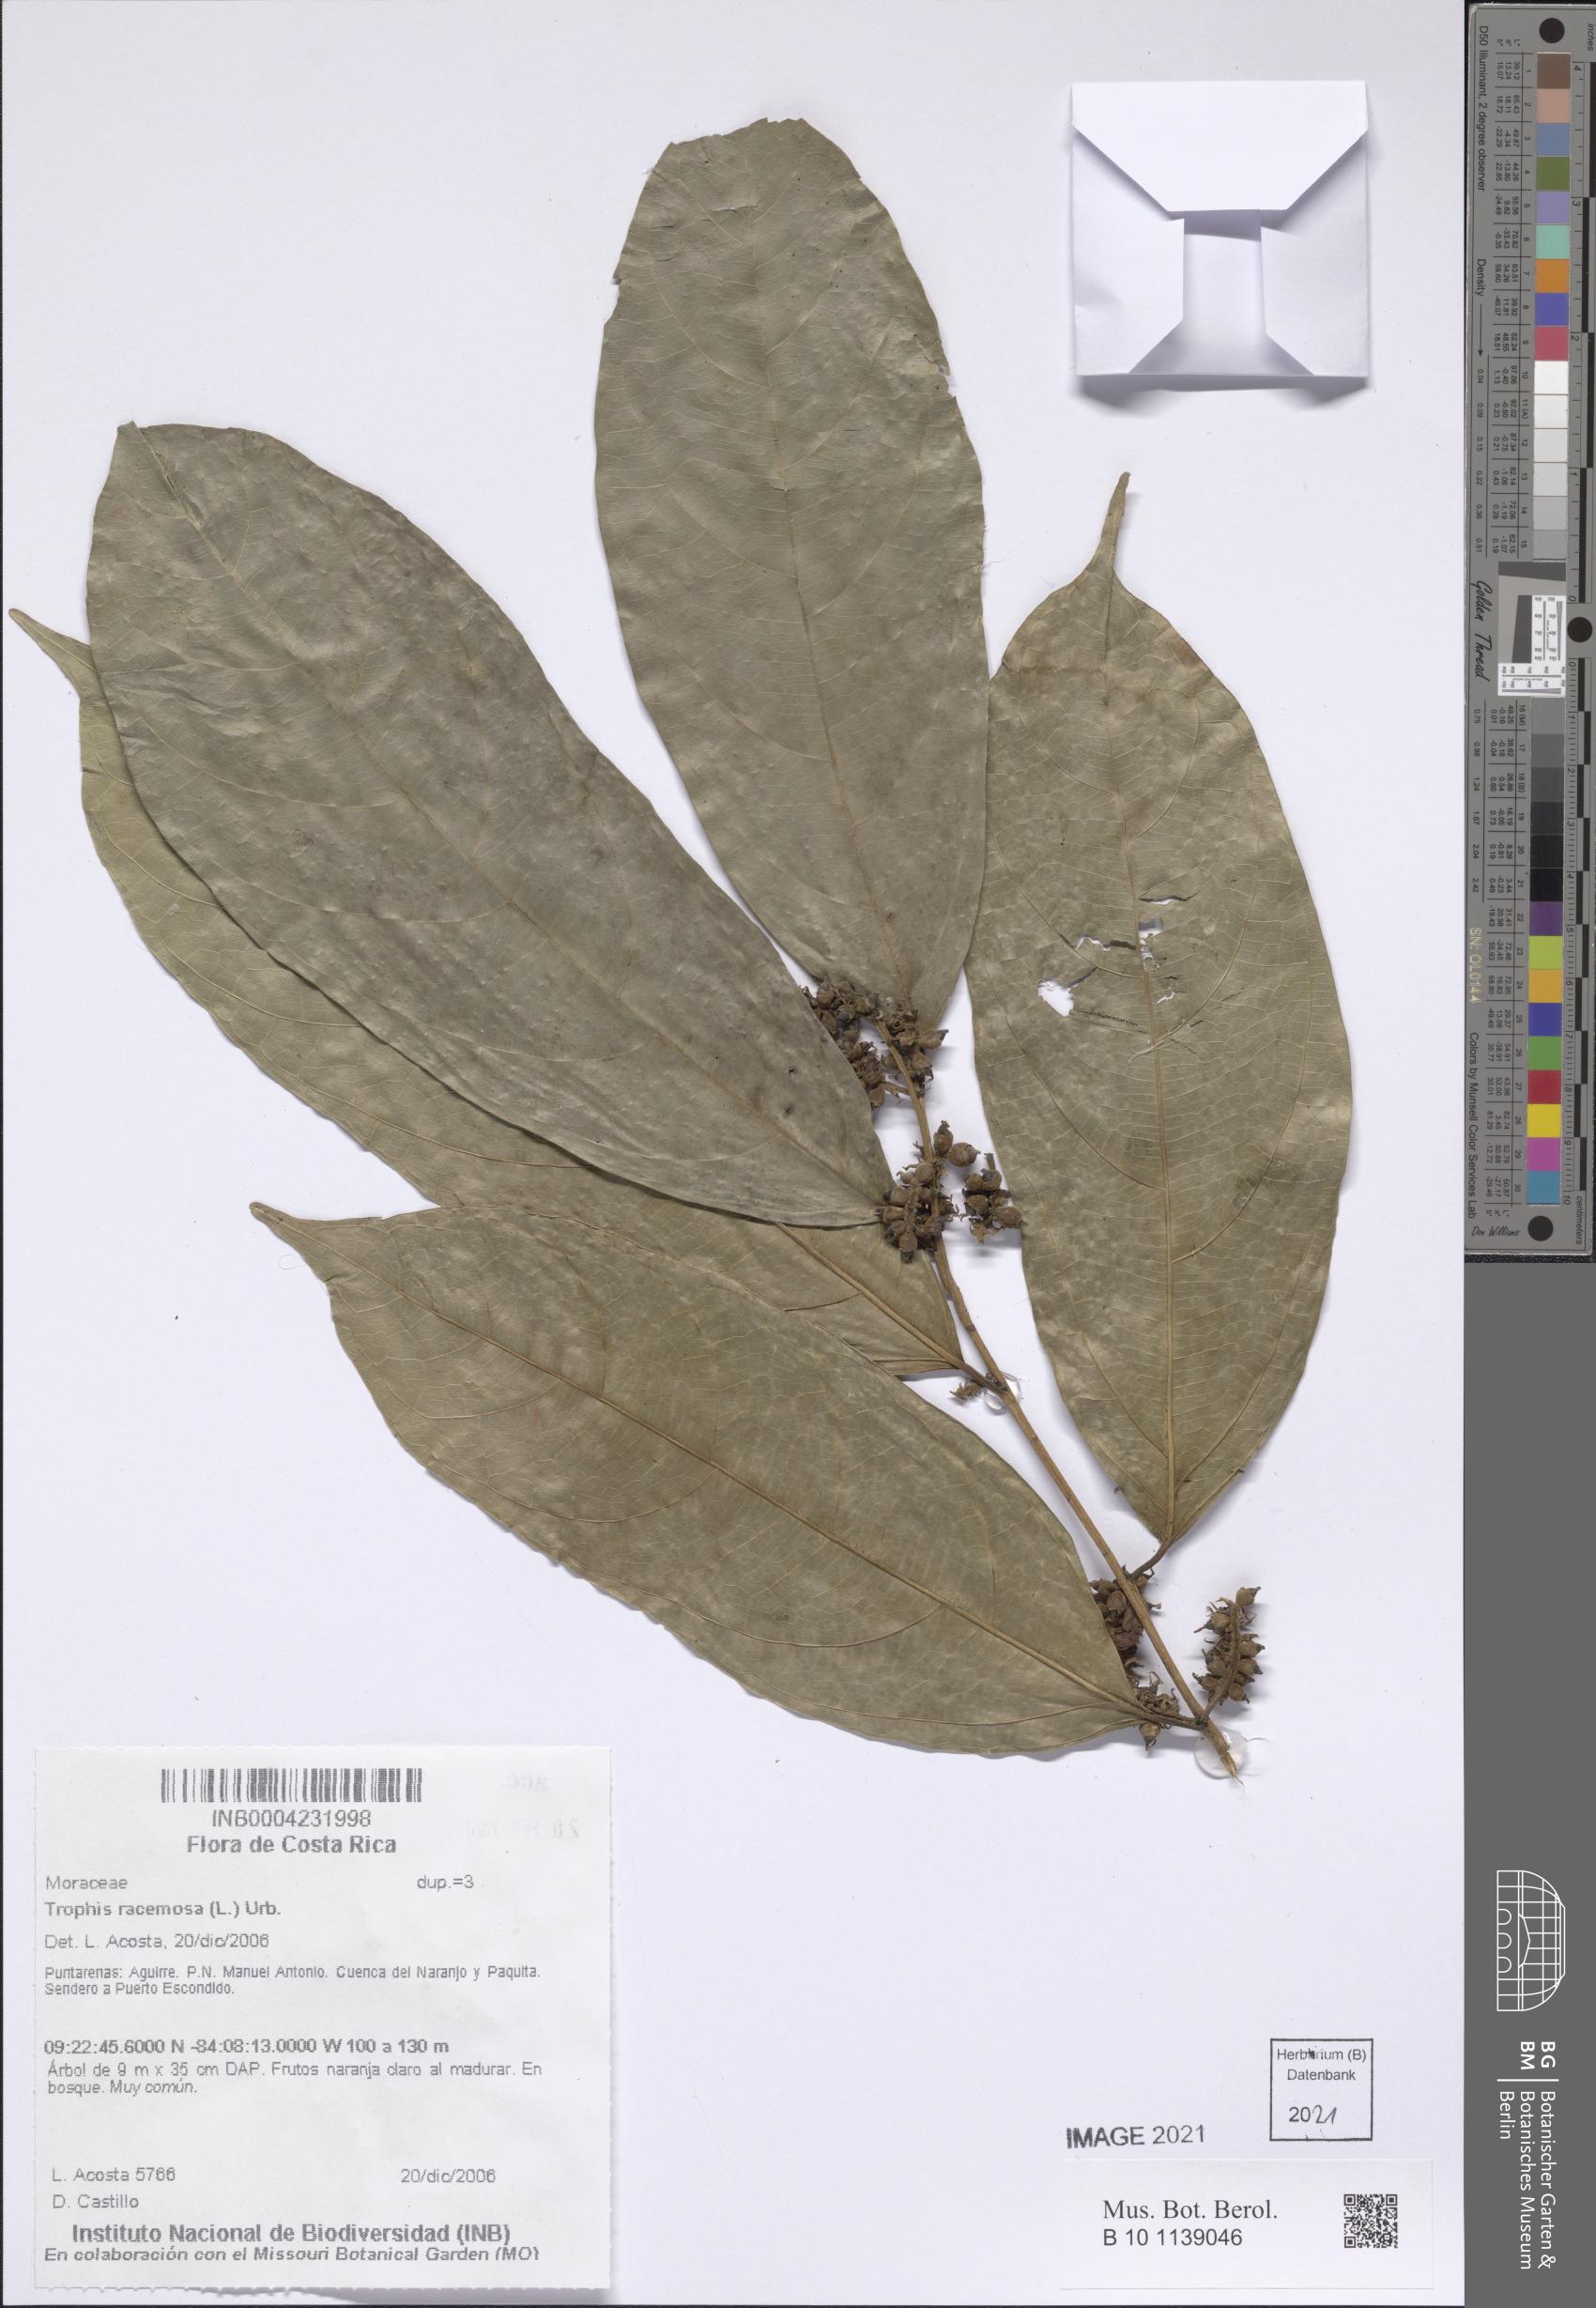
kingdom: Plantae
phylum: Tracheophyta
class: Magnoliopsida
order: Rosales
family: Moraceae
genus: Trophis
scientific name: Trophis racemosa
